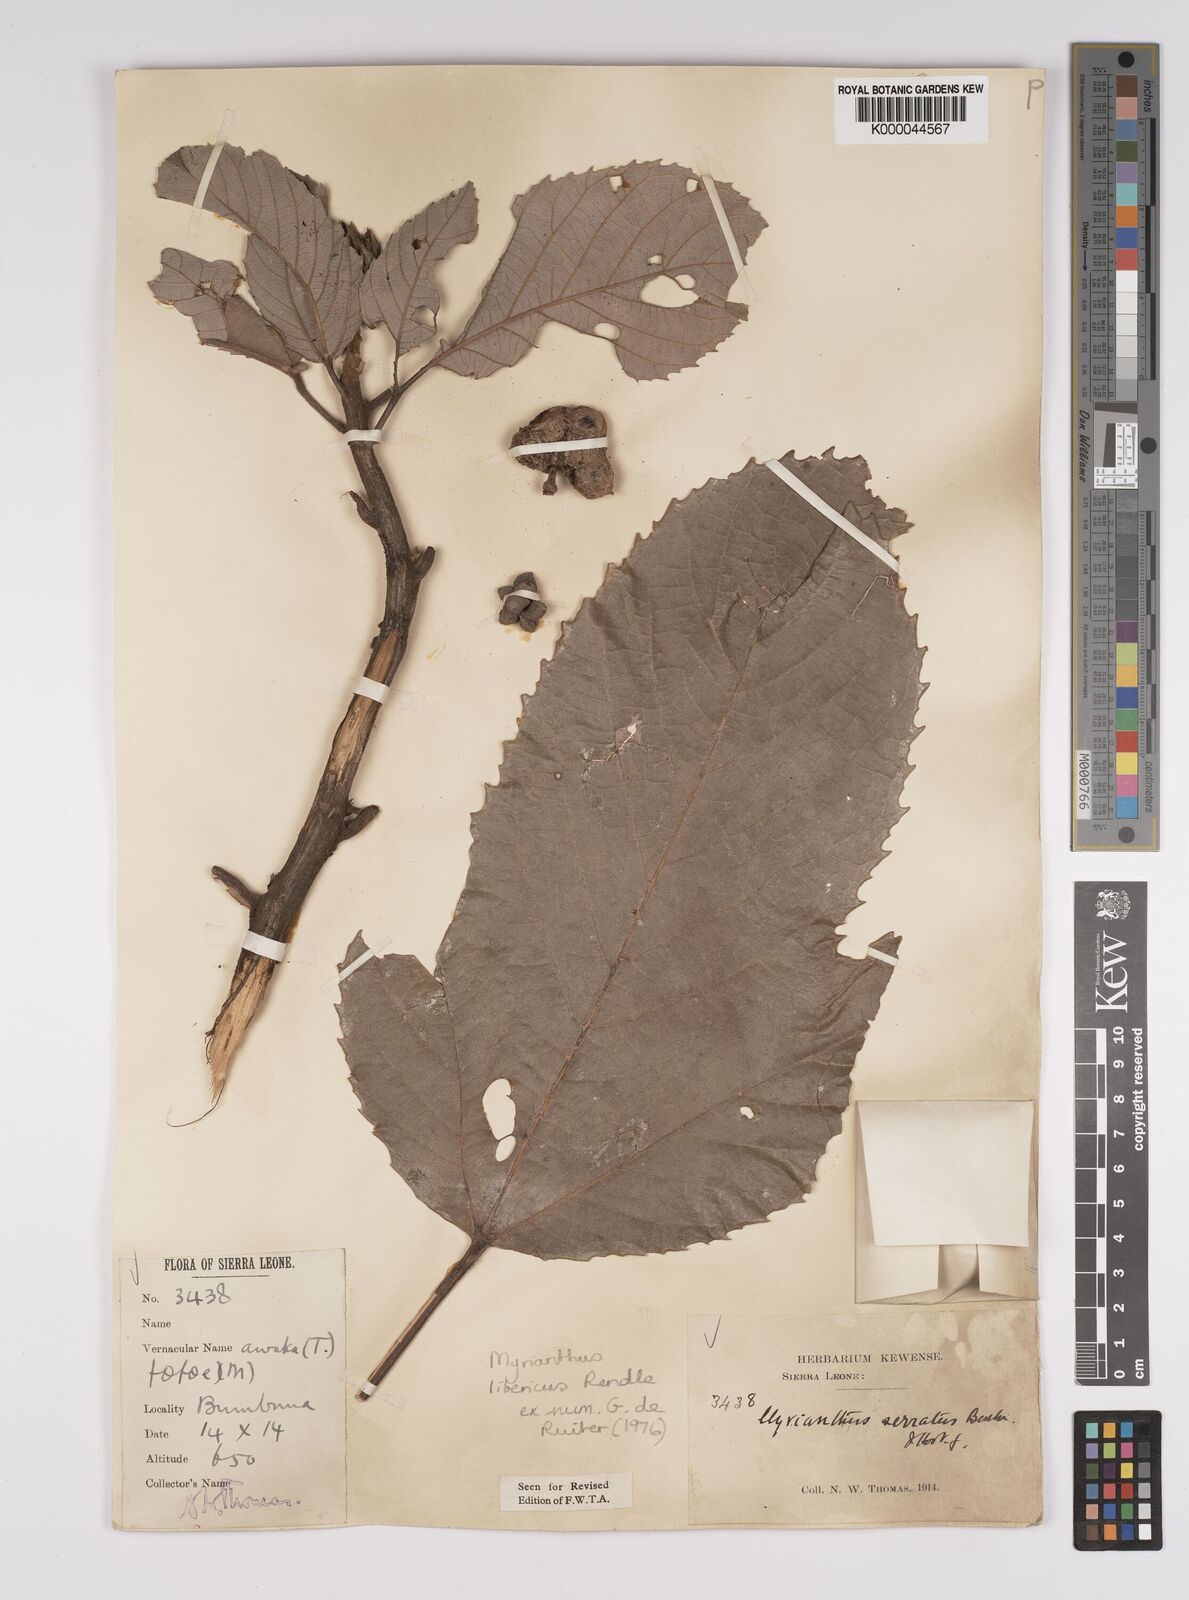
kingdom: Plantae
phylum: Tracheophyta
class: Magnoliopsida
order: Rosales
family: Urticaceae
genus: Myrianthus
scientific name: Myrianthus libericus
